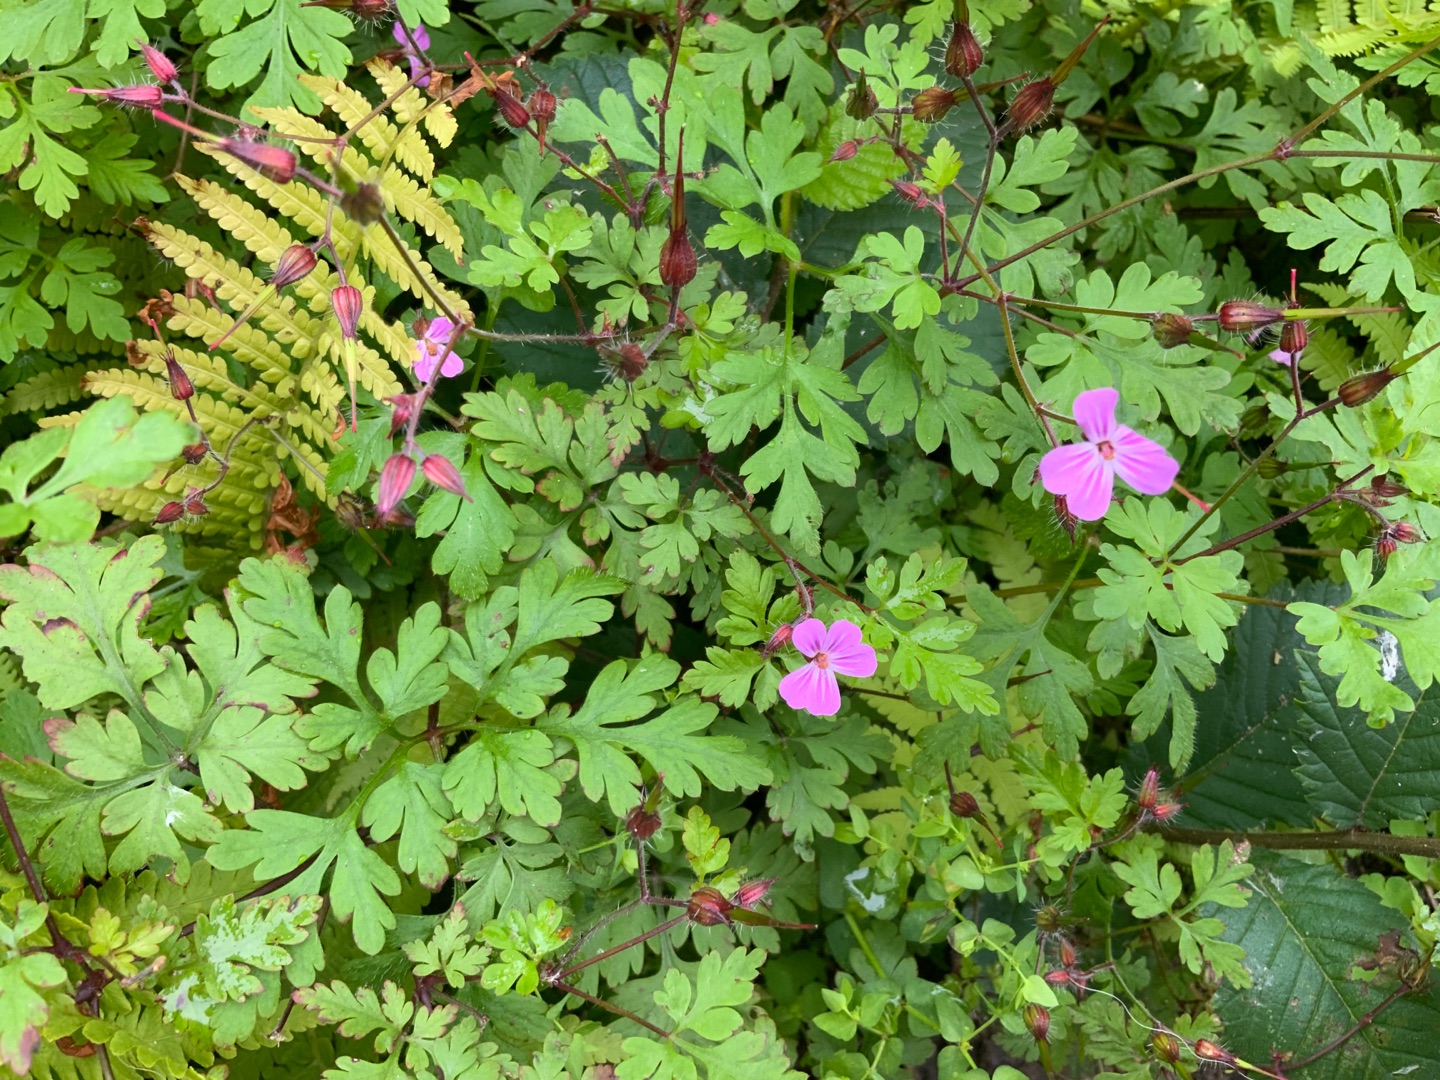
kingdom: Plantae
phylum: Tracheophyta
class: Magnoliopsida
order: Geraniales
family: Geraniaceae
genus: Geranium
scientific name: Geranium robertianum
